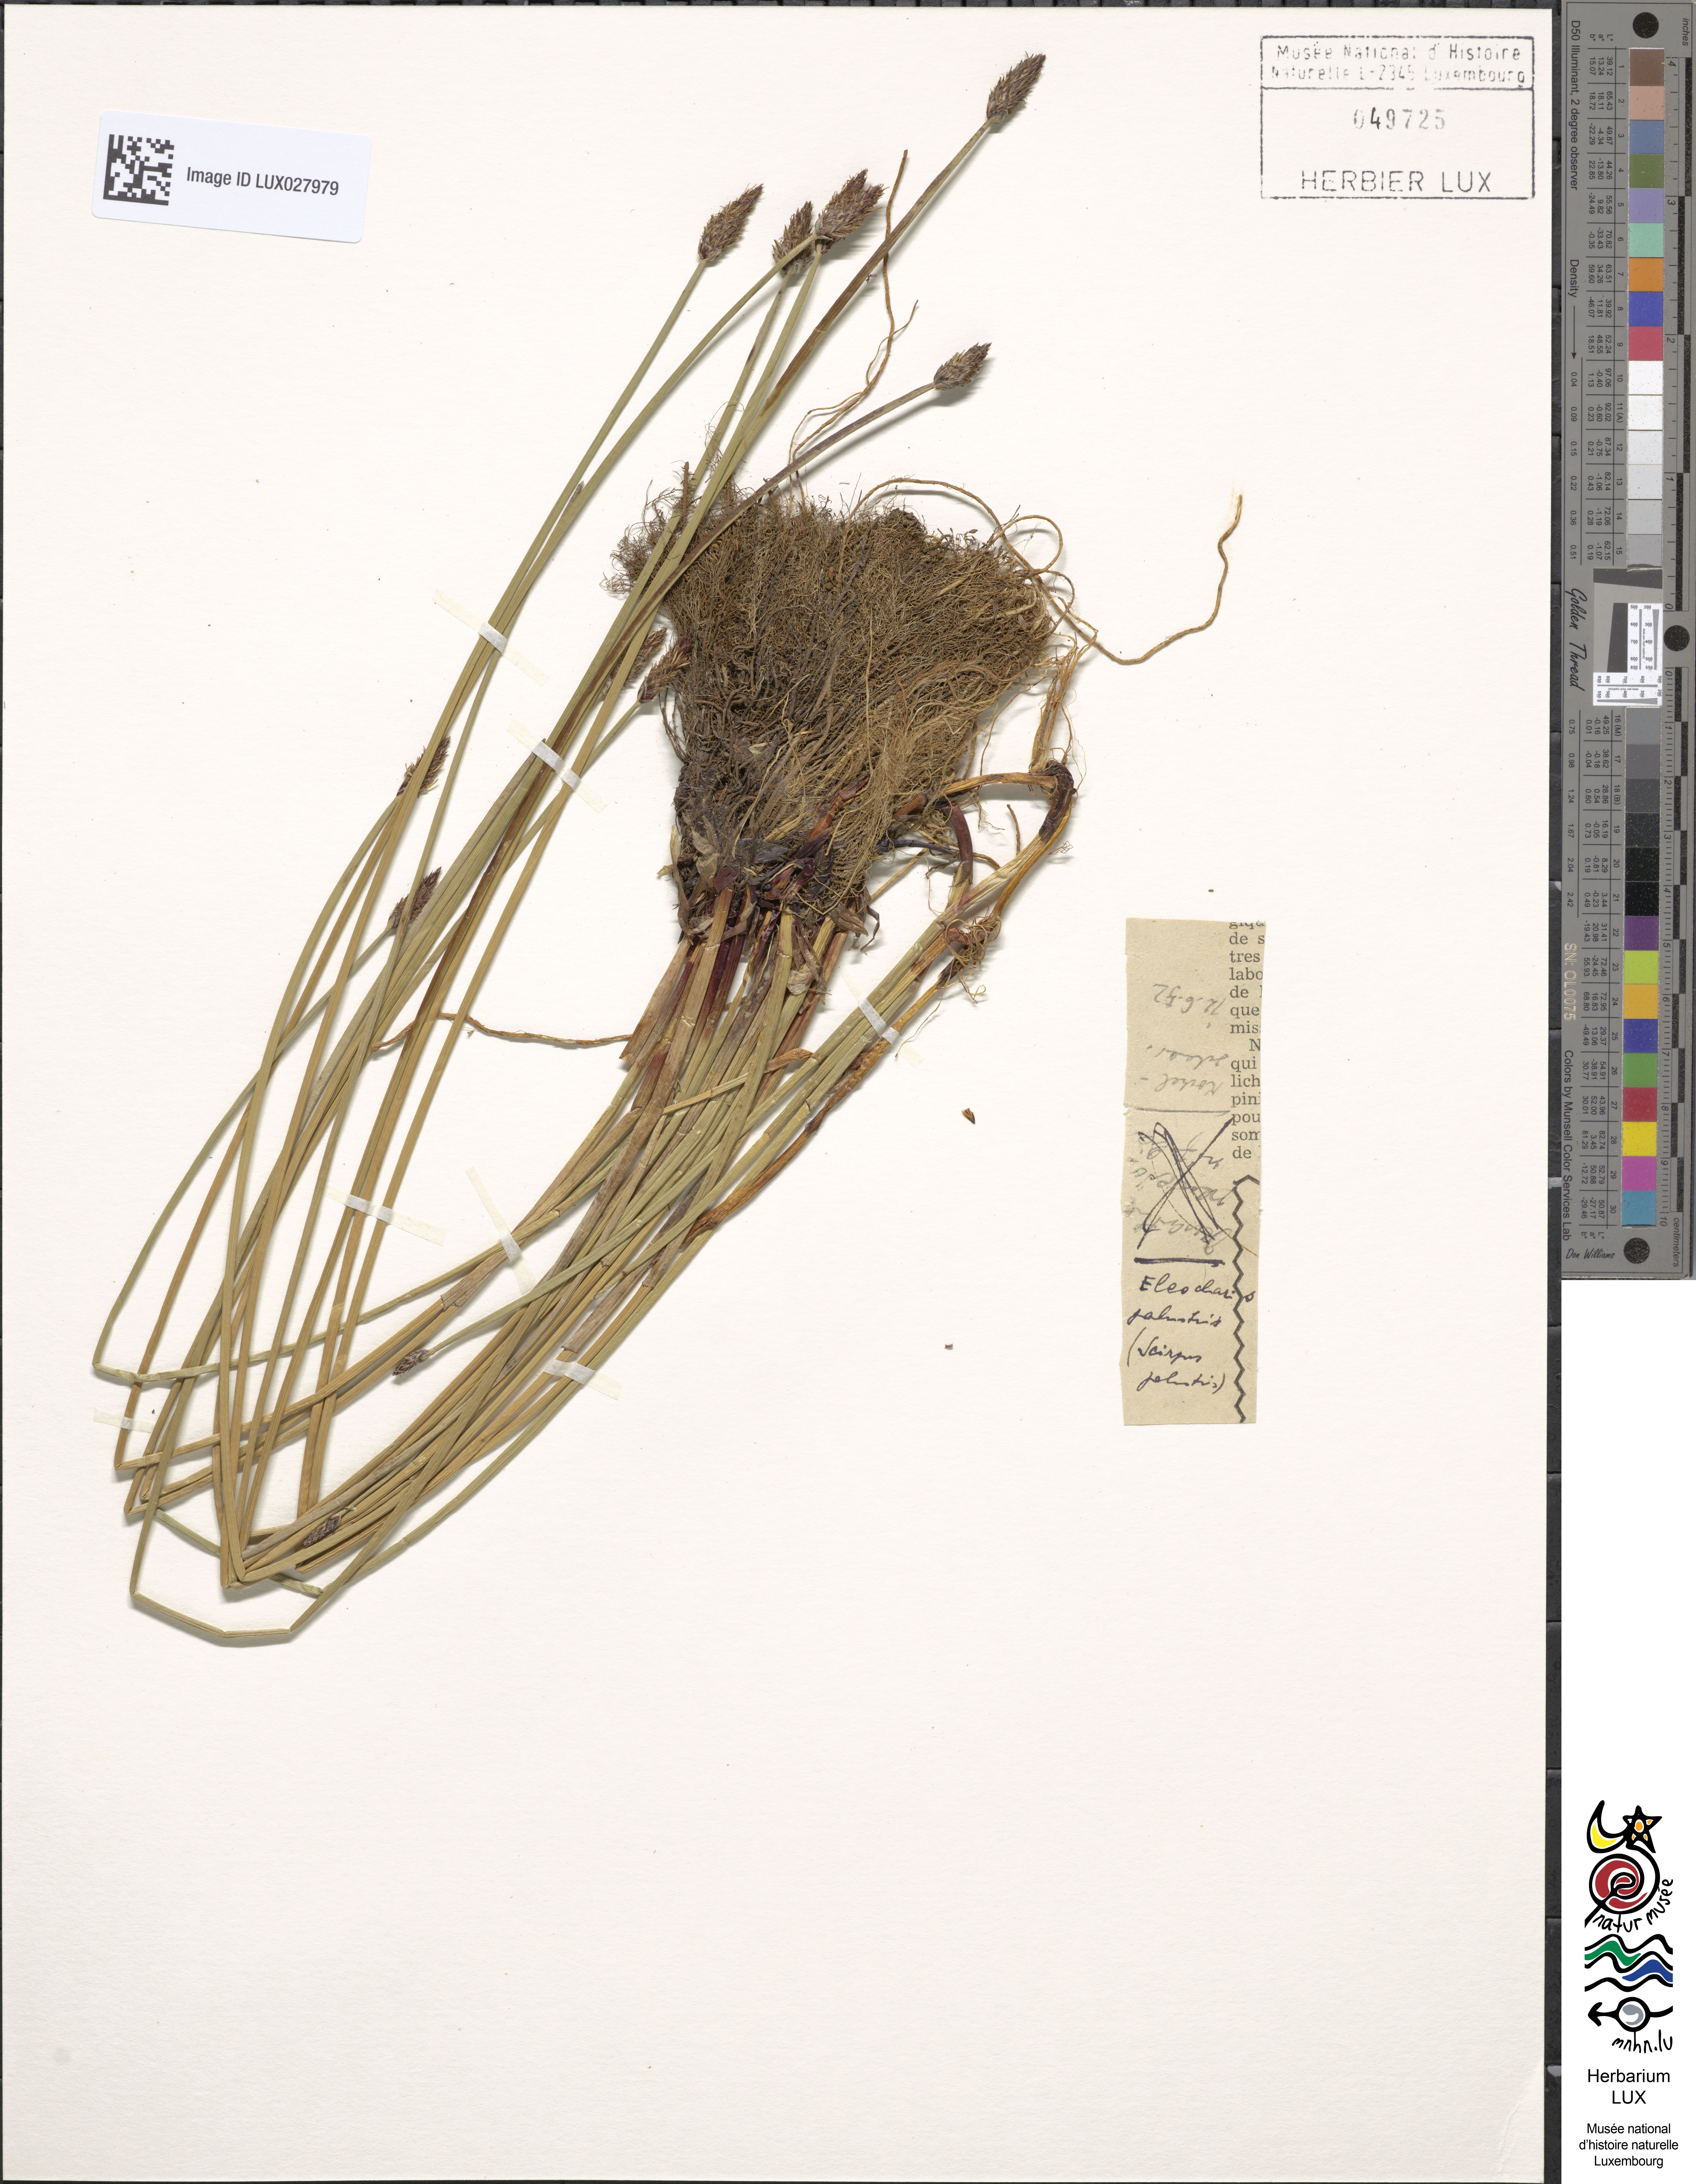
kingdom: Plantae
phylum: Tracheophyta
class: Liliopsida
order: Poales
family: Cyperaceae
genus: Eleocharis
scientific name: Eleocharis palustris
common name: Common spike-rush
